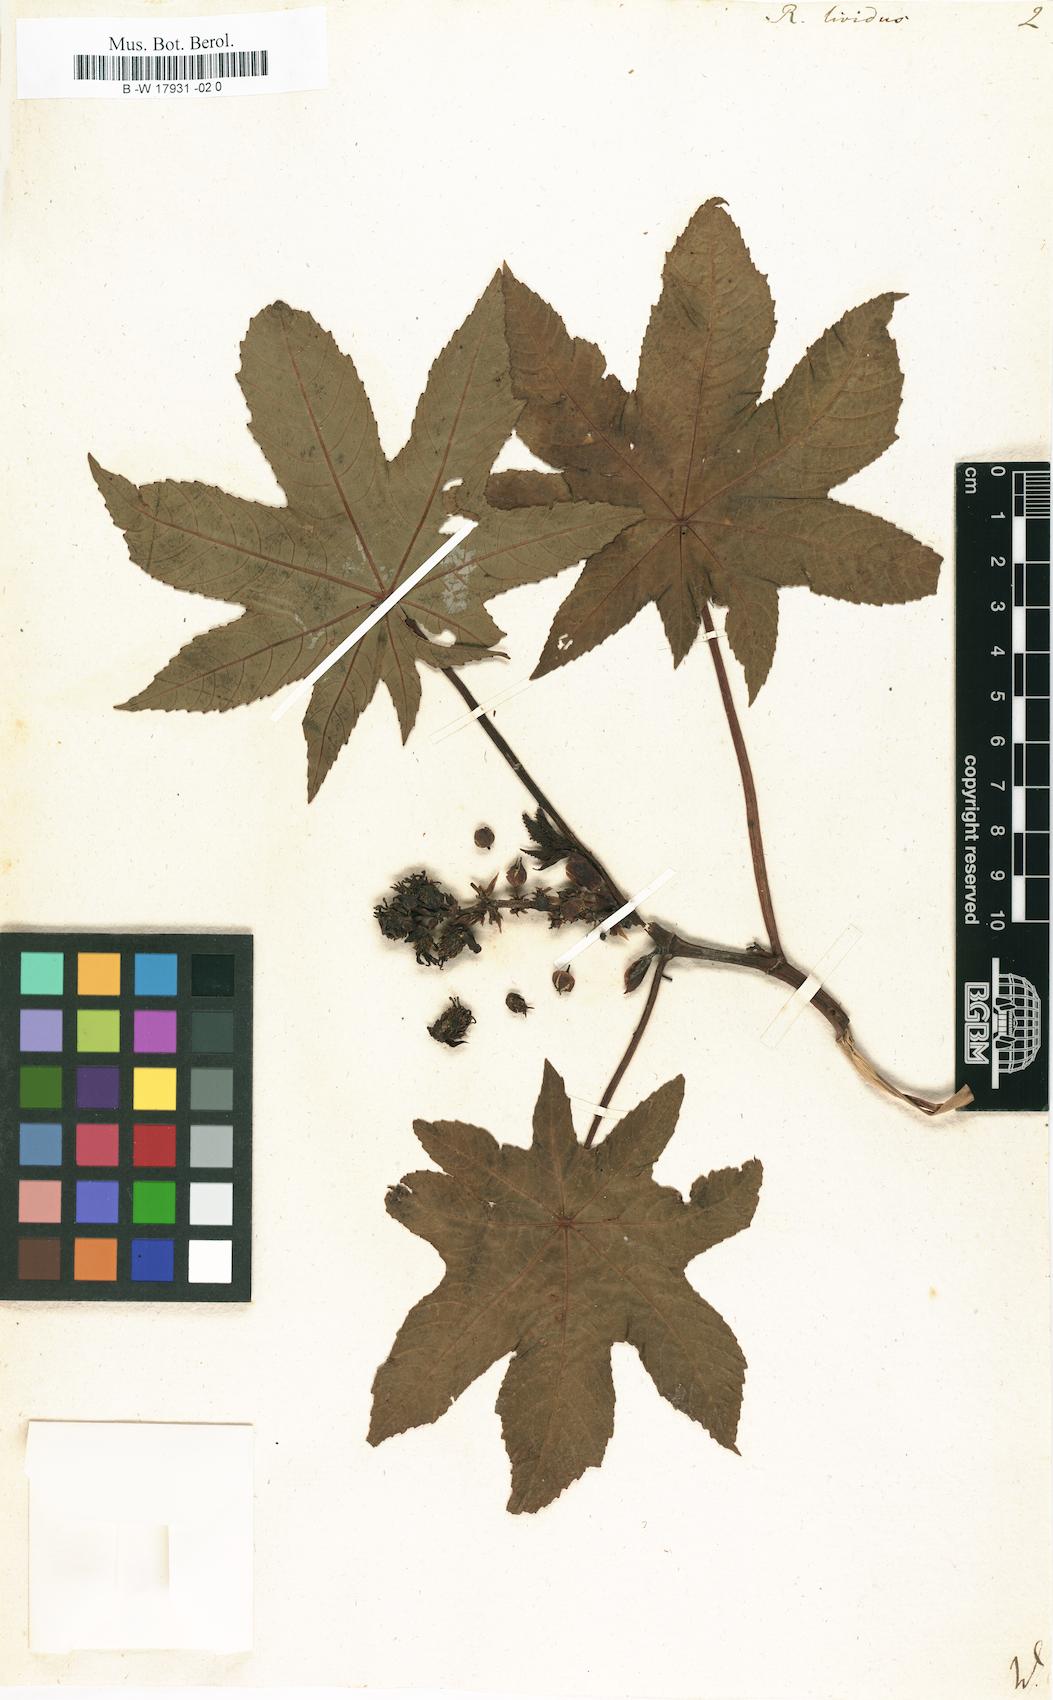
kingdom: Plantae
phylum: Tracheophyta
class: Magnoliopsida
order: Malpighiales
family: Euphorbiaceae
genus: Ricinus
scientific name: Ricinus communis
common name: Castor-oil-plant
